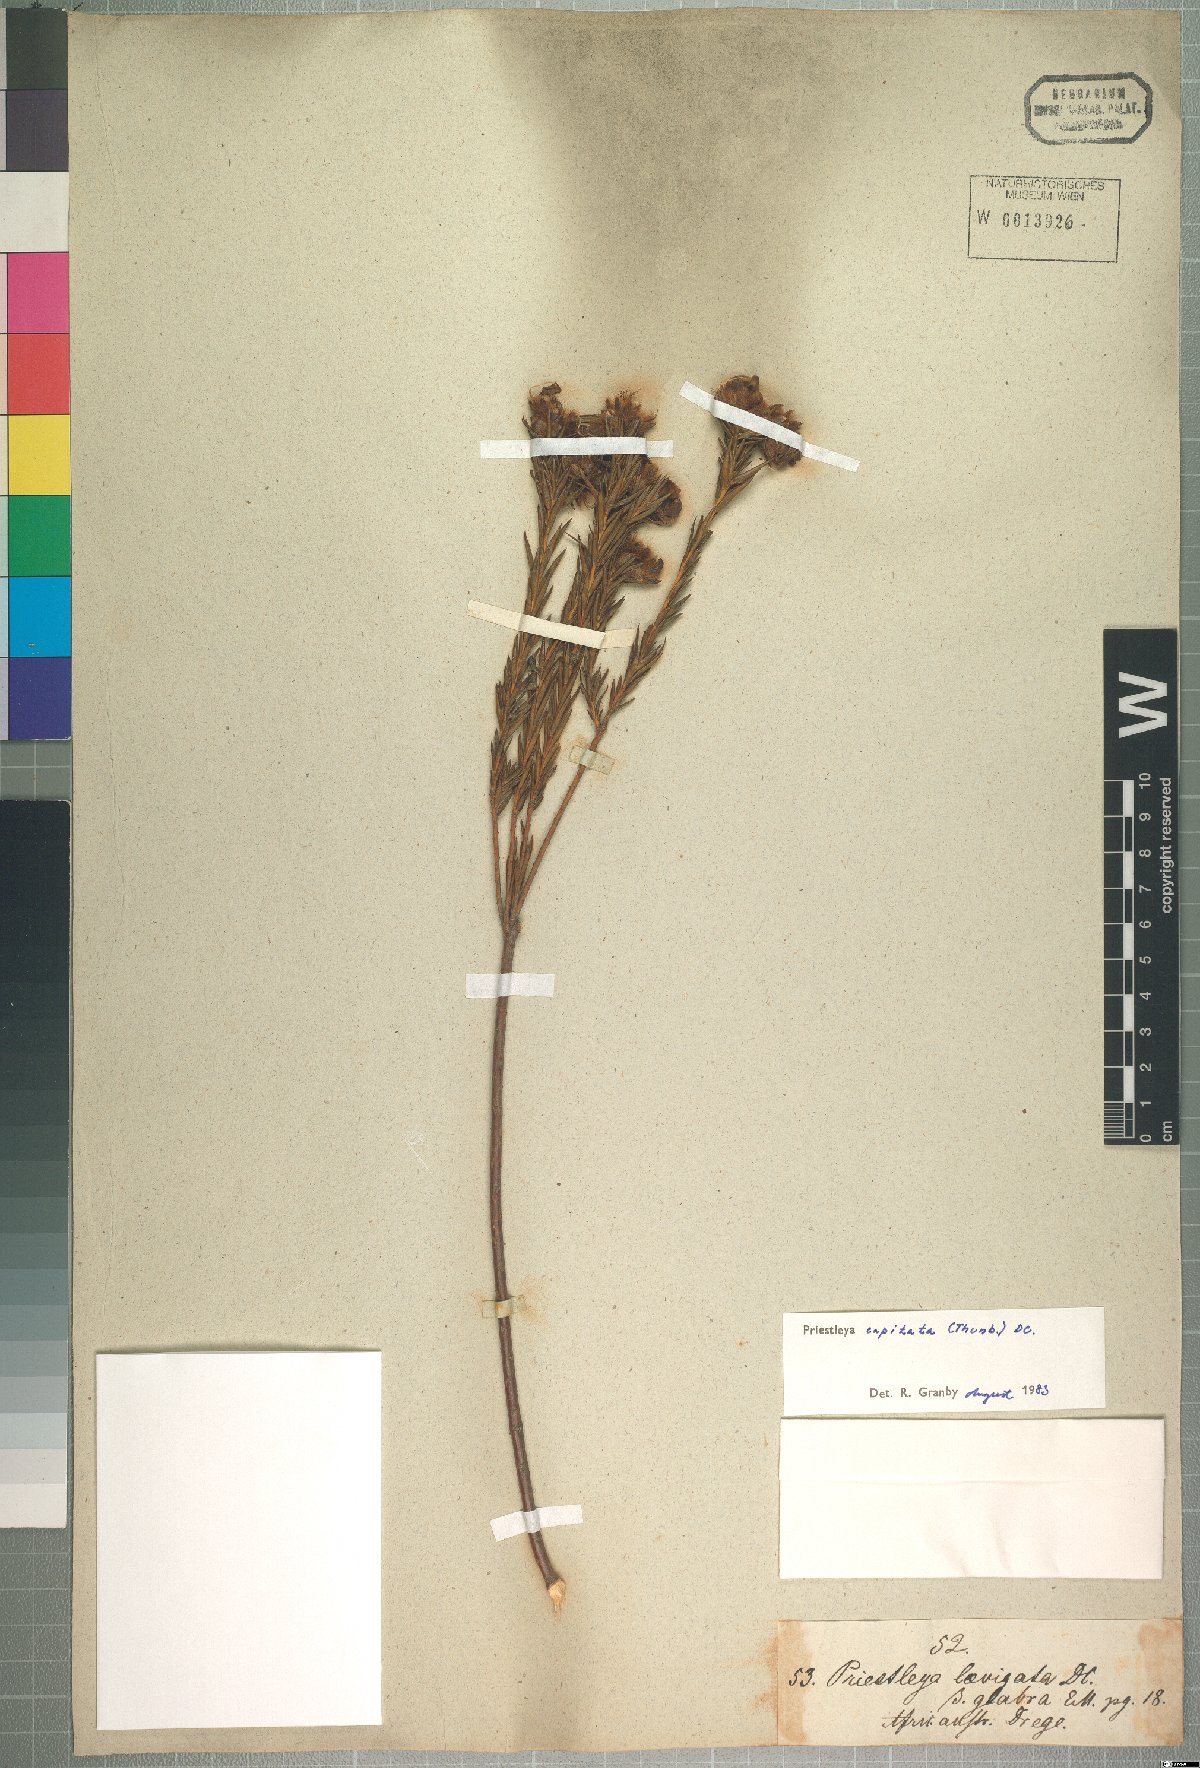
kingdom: Plantae
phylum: Tracheophyta
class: Magnoliopsida
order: Fabales
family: Fabaceae
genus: Liparia
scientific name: Liparia capitata
